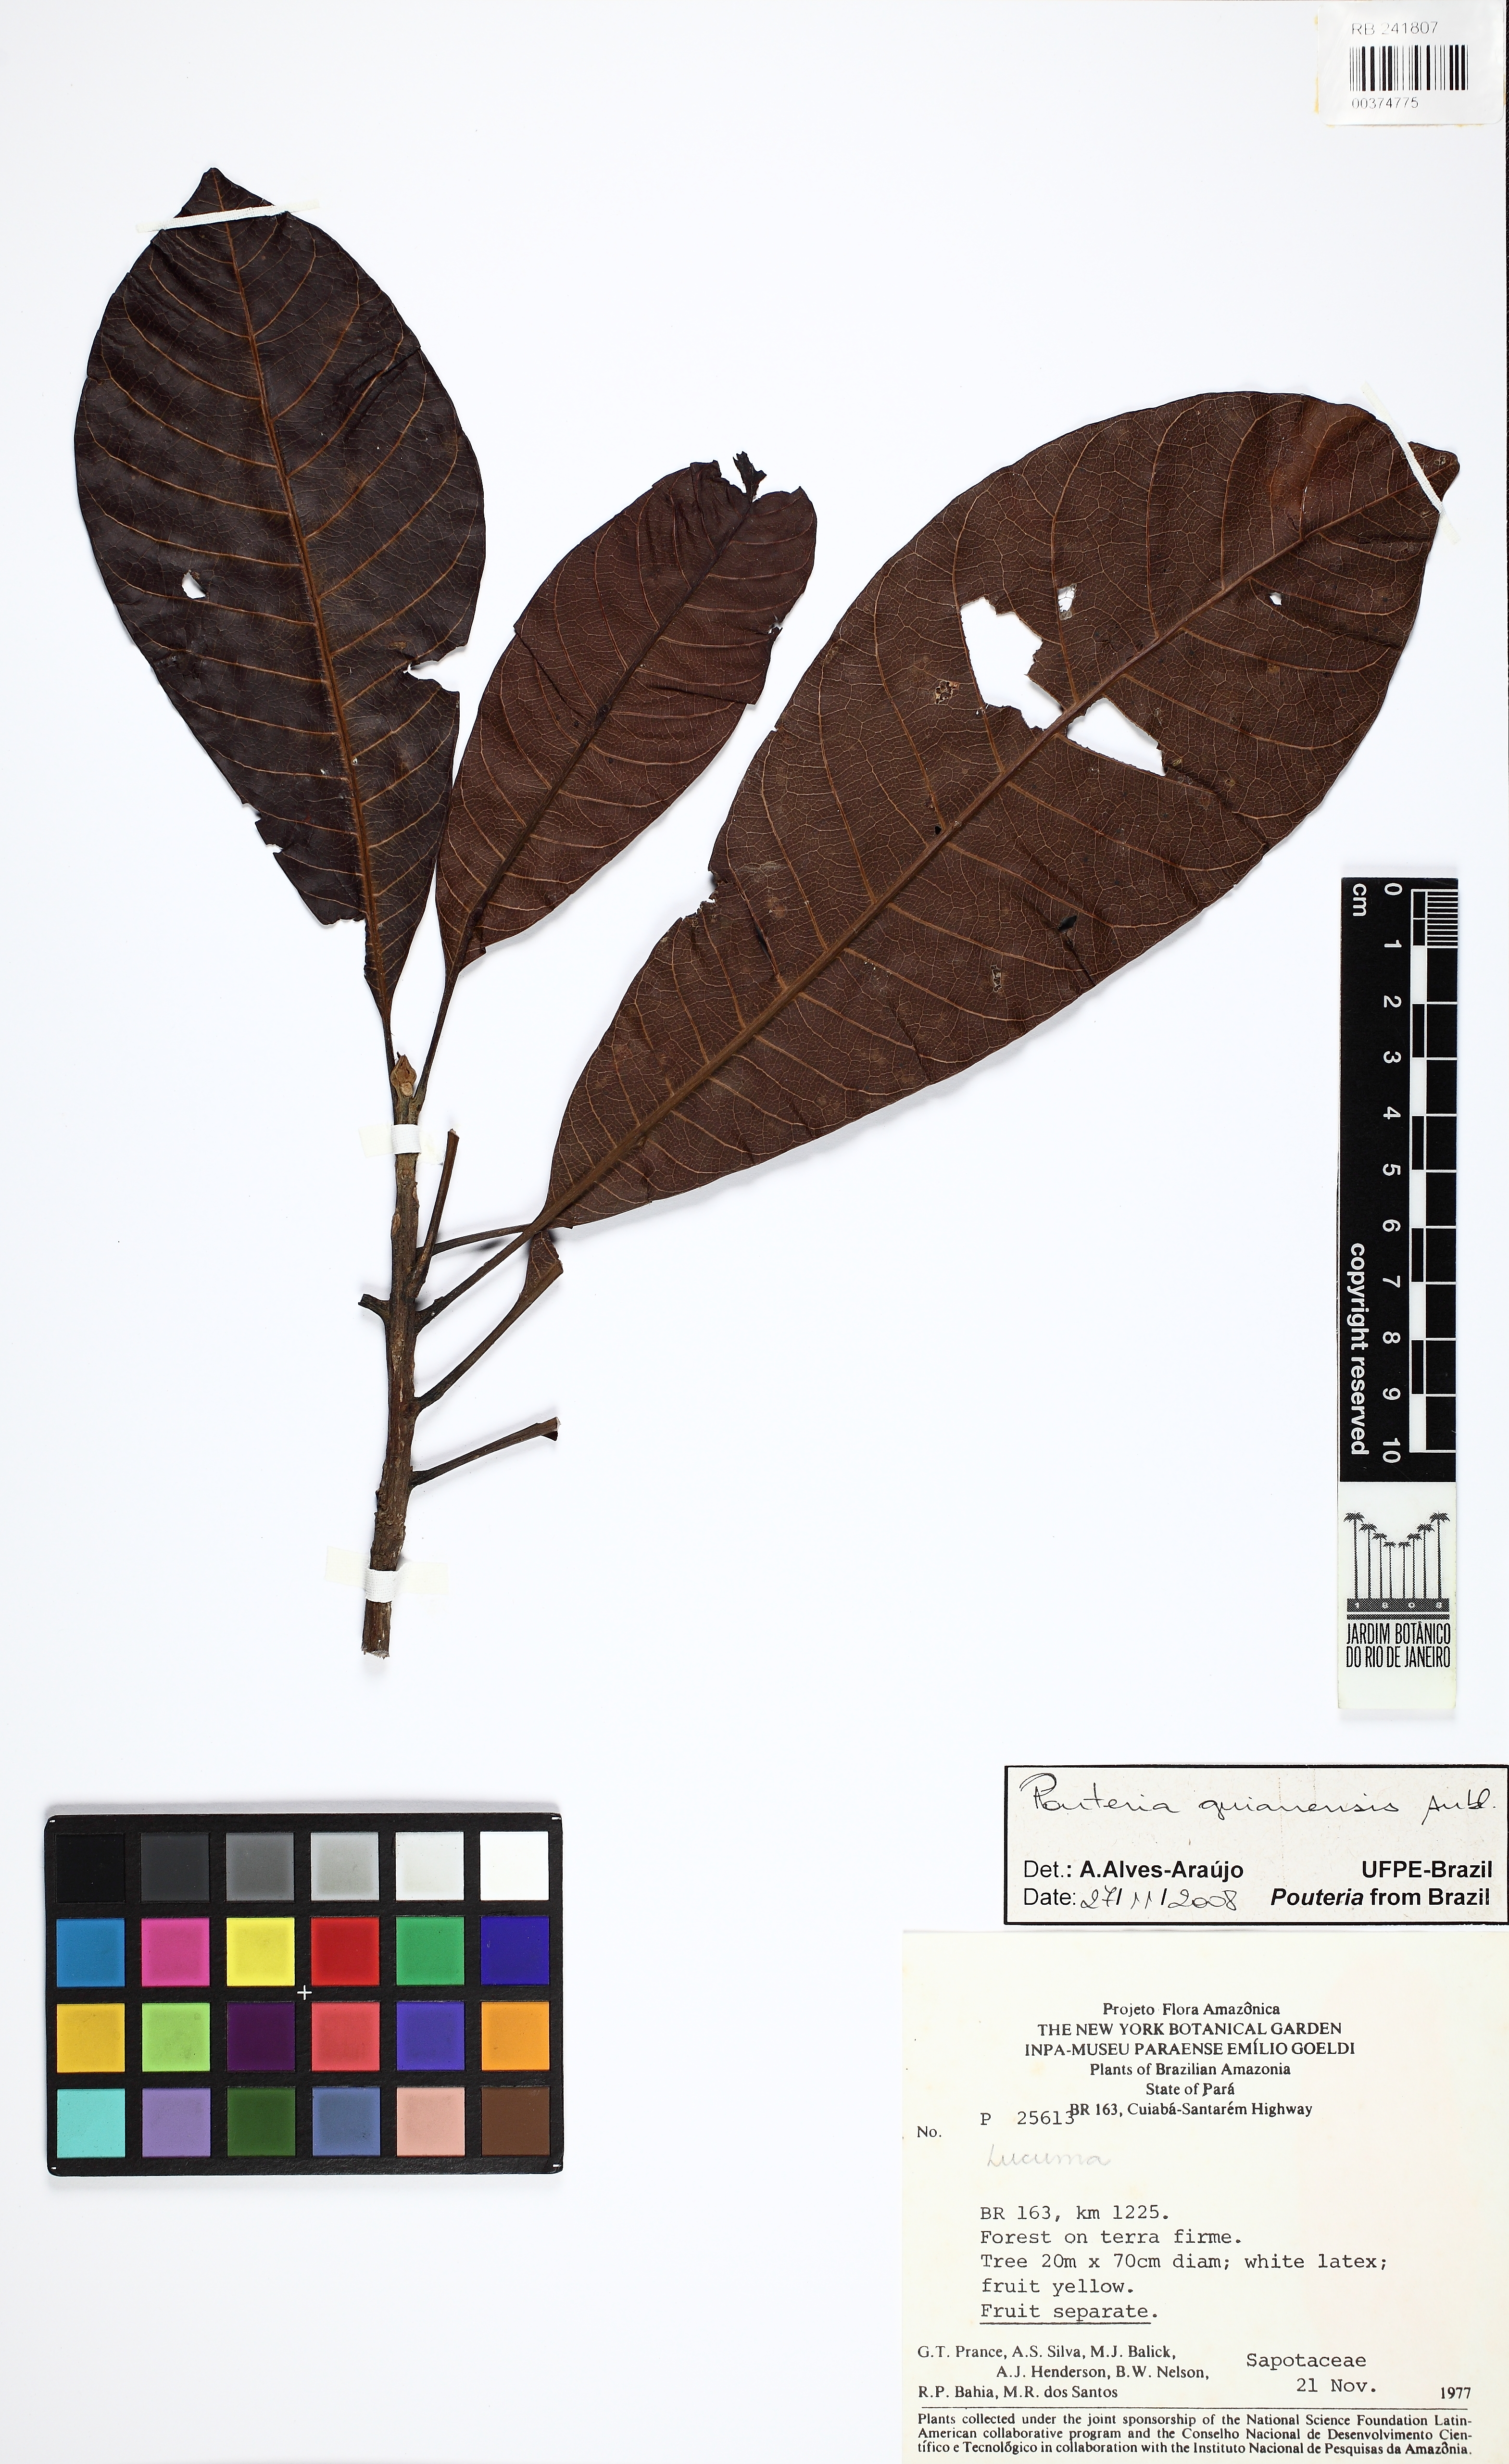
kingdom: Plantae
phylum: Tracheophyta
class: Magnoliopsida
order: Ericales
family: Sapotaceae
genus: Pouteria
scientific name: Pouteria guianensis
